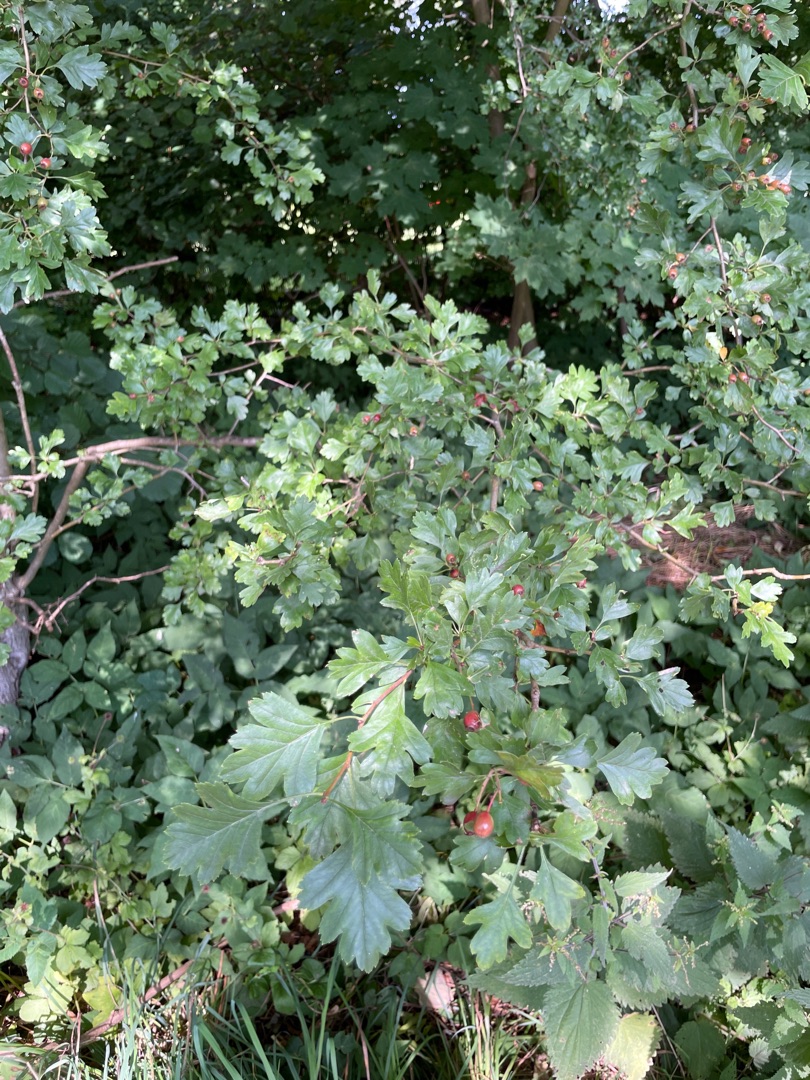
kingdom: Plantae
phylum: Tracheophyta
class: Magnoliopsida
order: Rosales
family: Rosaceae
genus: Crataegus
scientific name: Crataegus subsphaerica
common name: Engriflet hvidtjørn × koral-hvidtjørn
